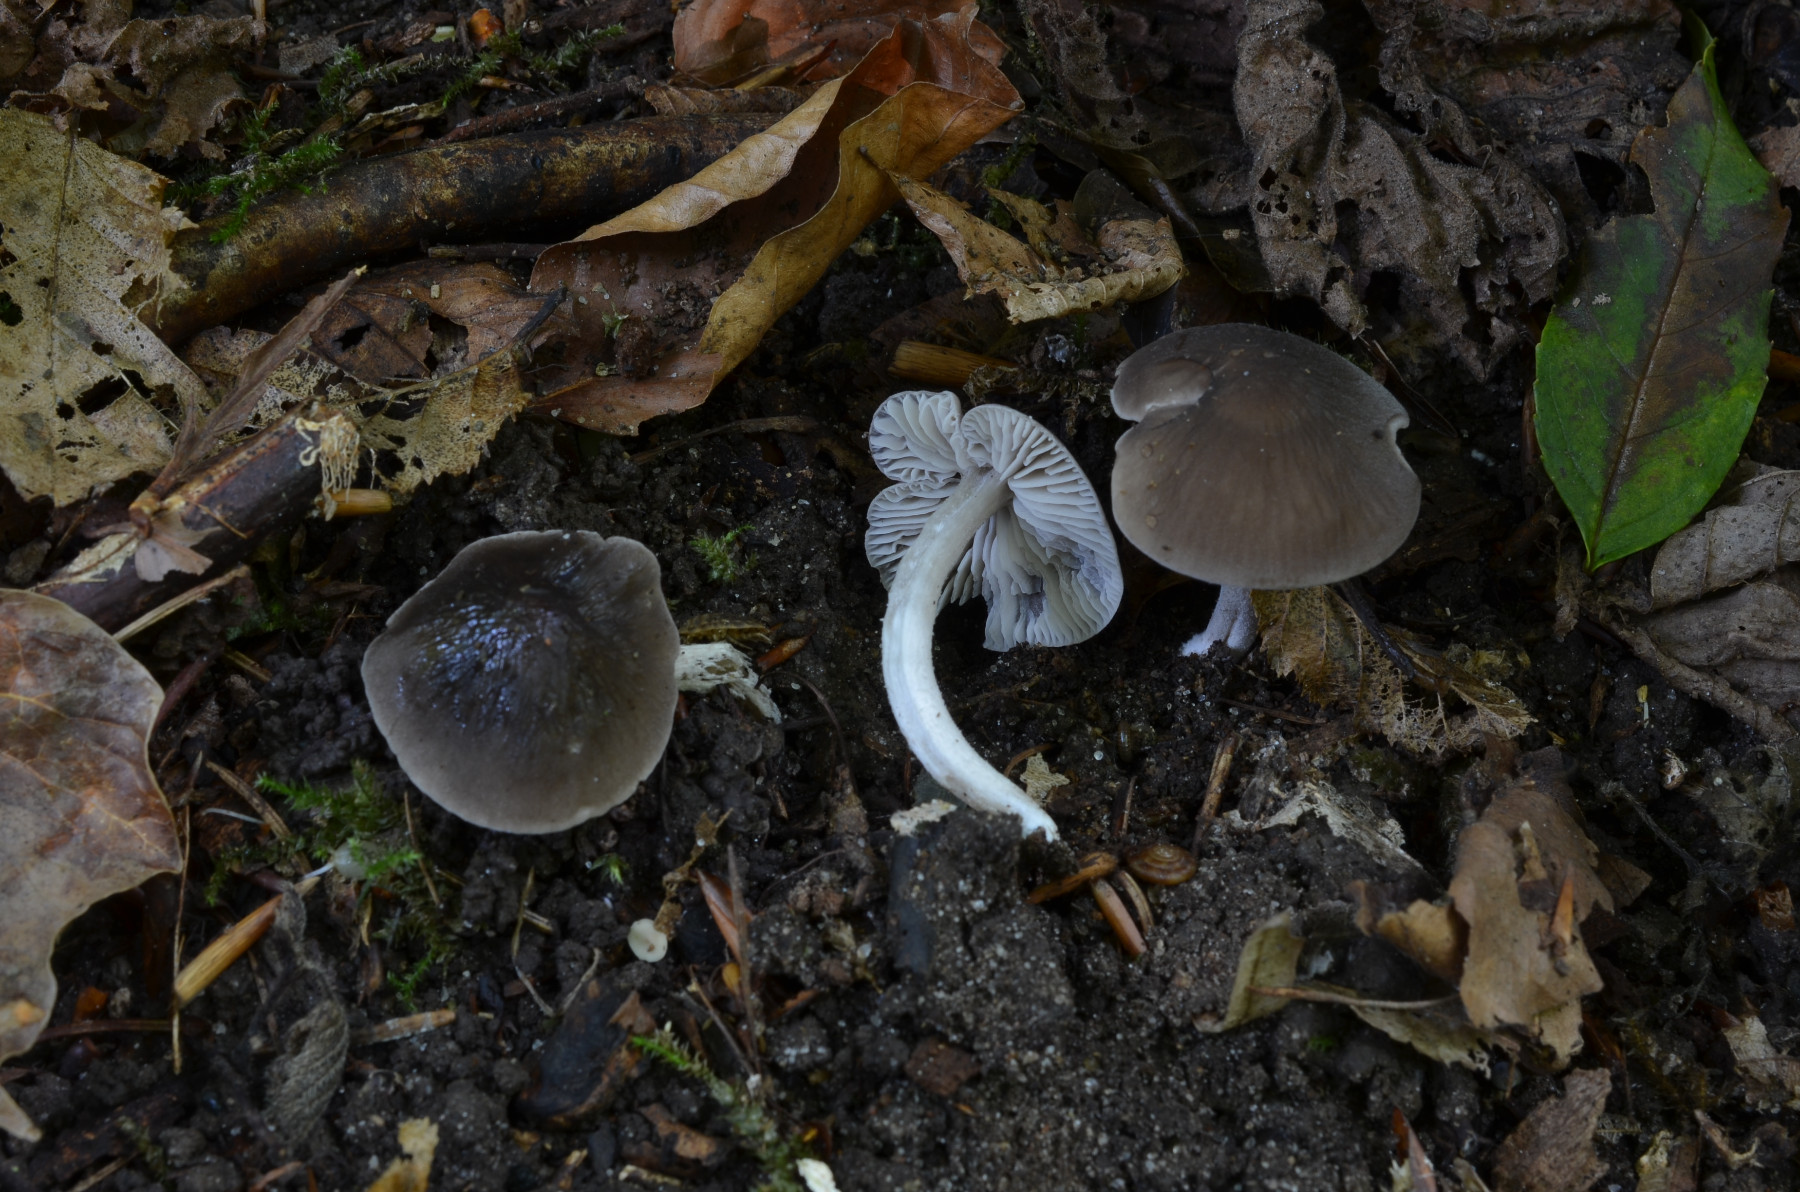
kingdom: Fungi
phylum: Basidiomycota
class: Agaricomycetes
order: Agaricales
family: Tricholomataceae
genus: Dermoloma
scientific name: Dermoloma cuneifolium
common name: eng-nonnehat
